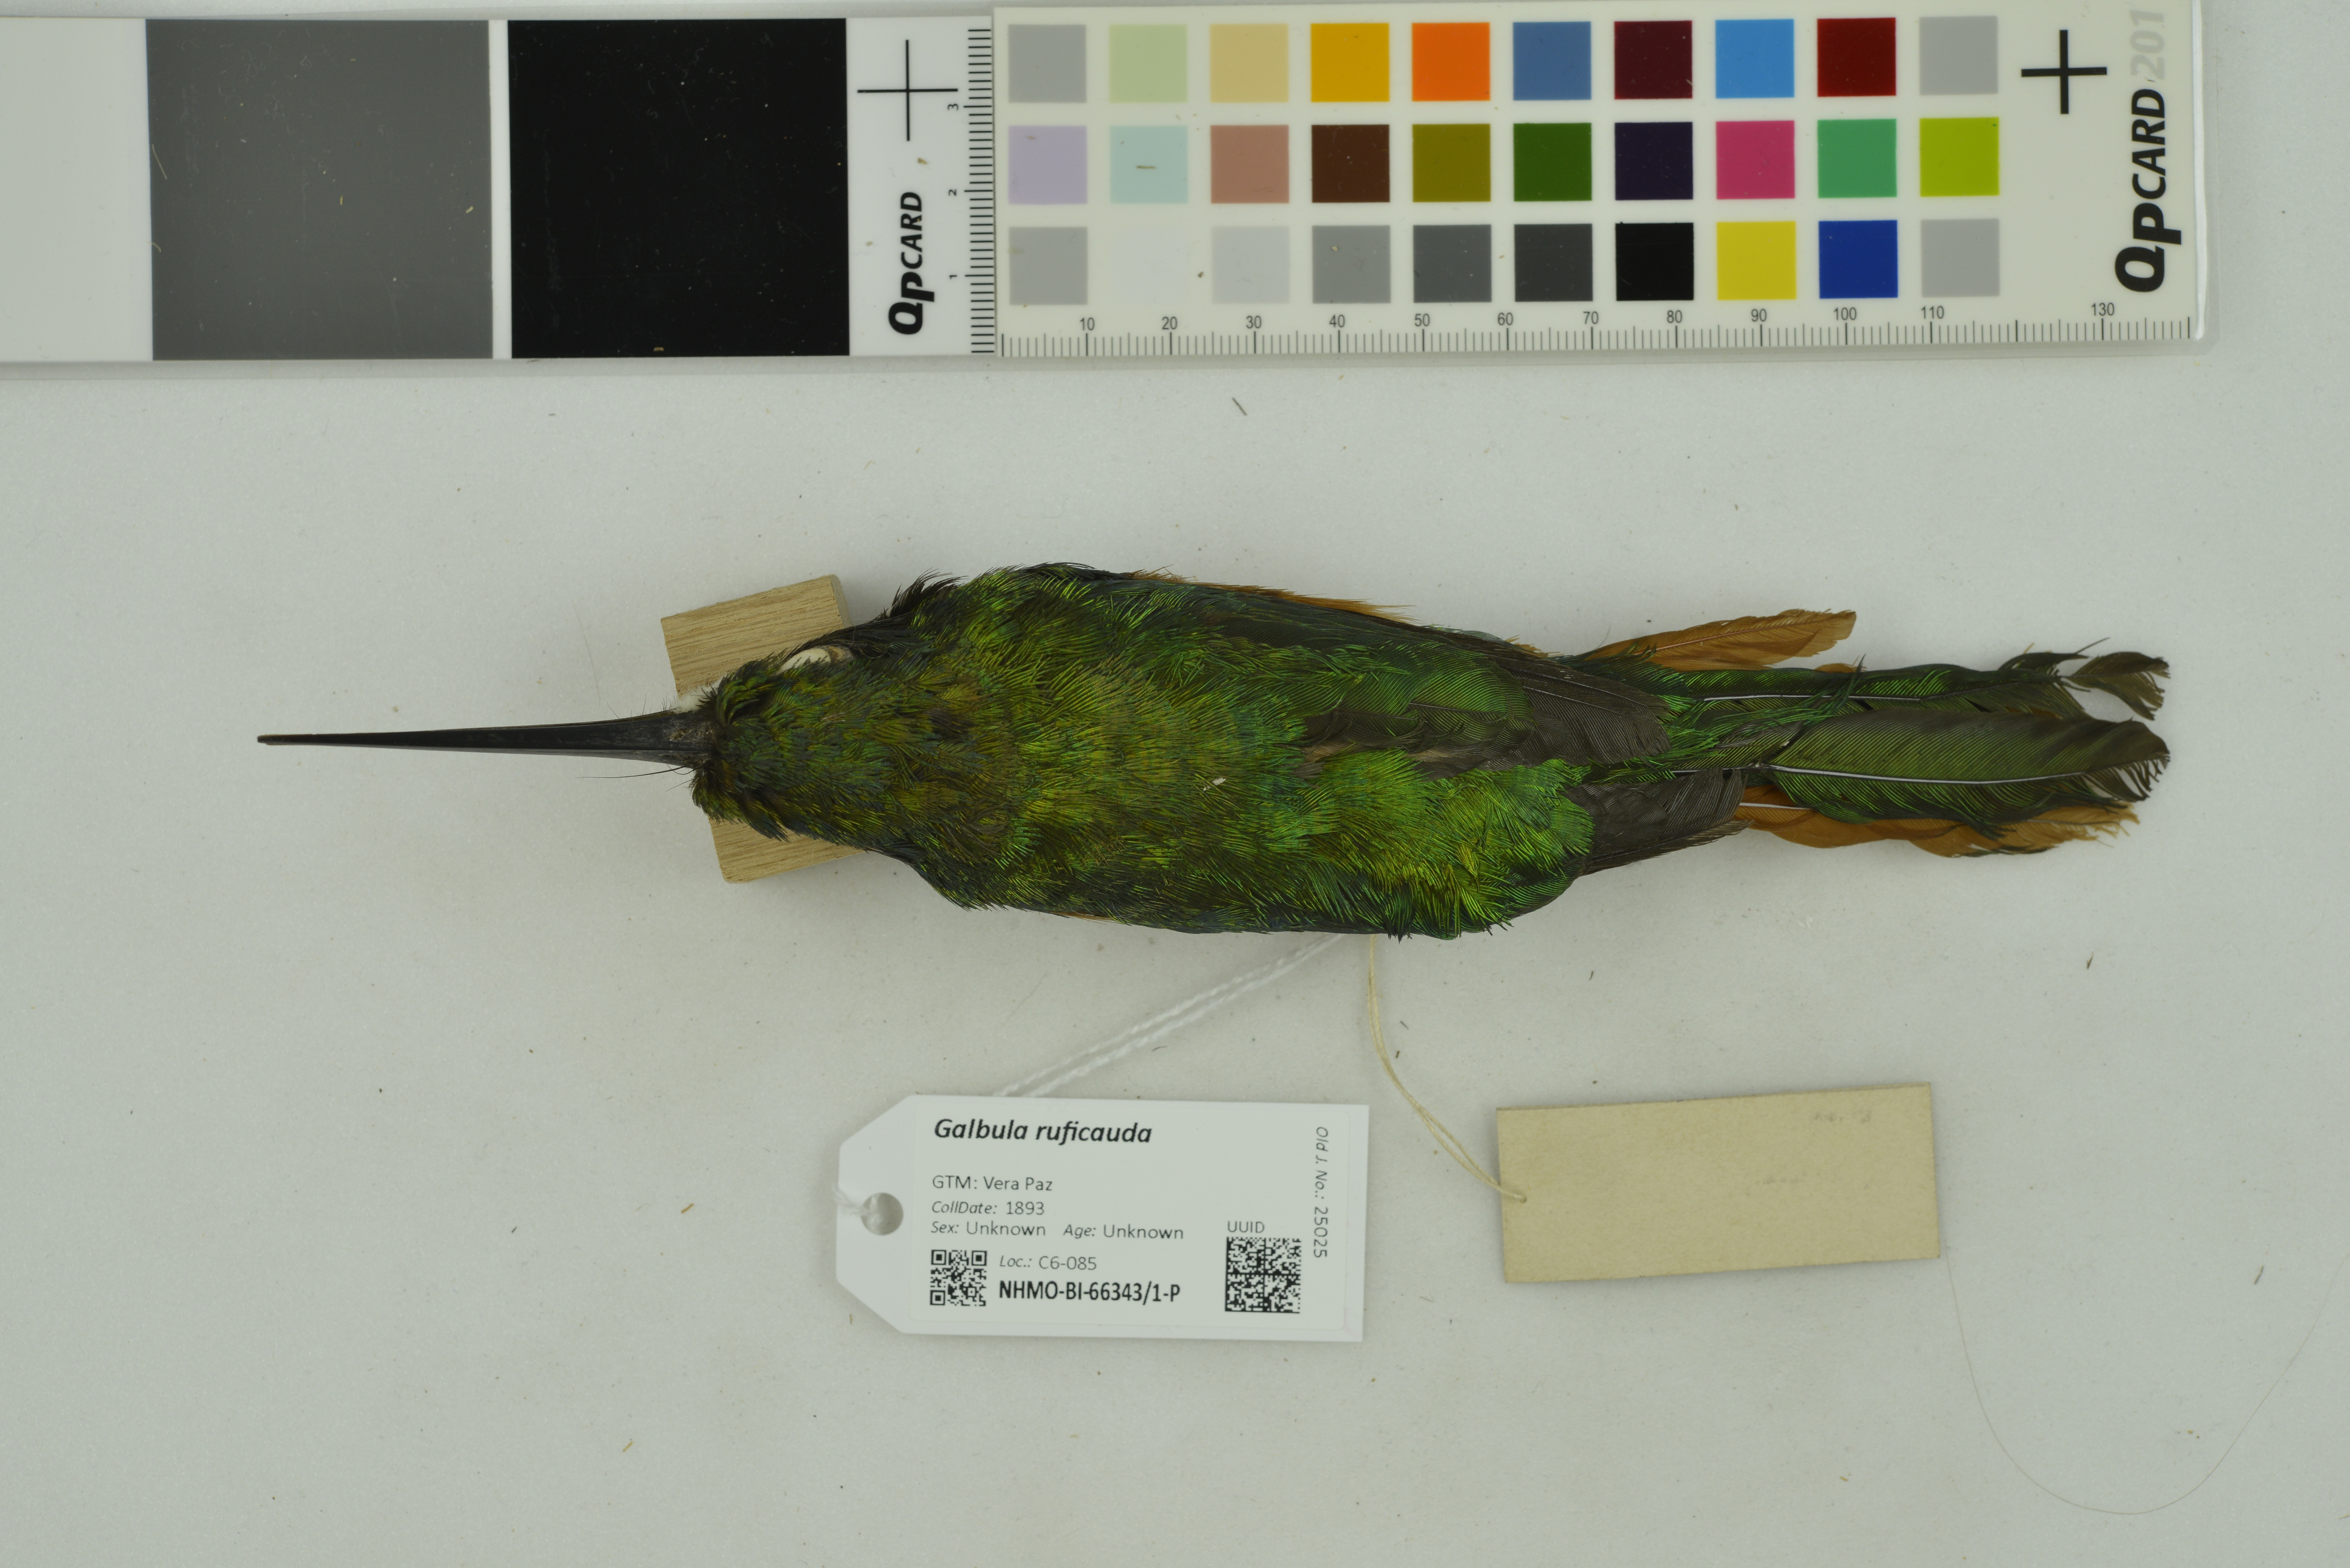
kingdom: Animalia
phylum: Chordata
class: Aves
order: Piciformes
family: Galbulidae
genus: Galbula
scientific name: Galbula ruficauda
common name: Rufous-tailed jacamar
